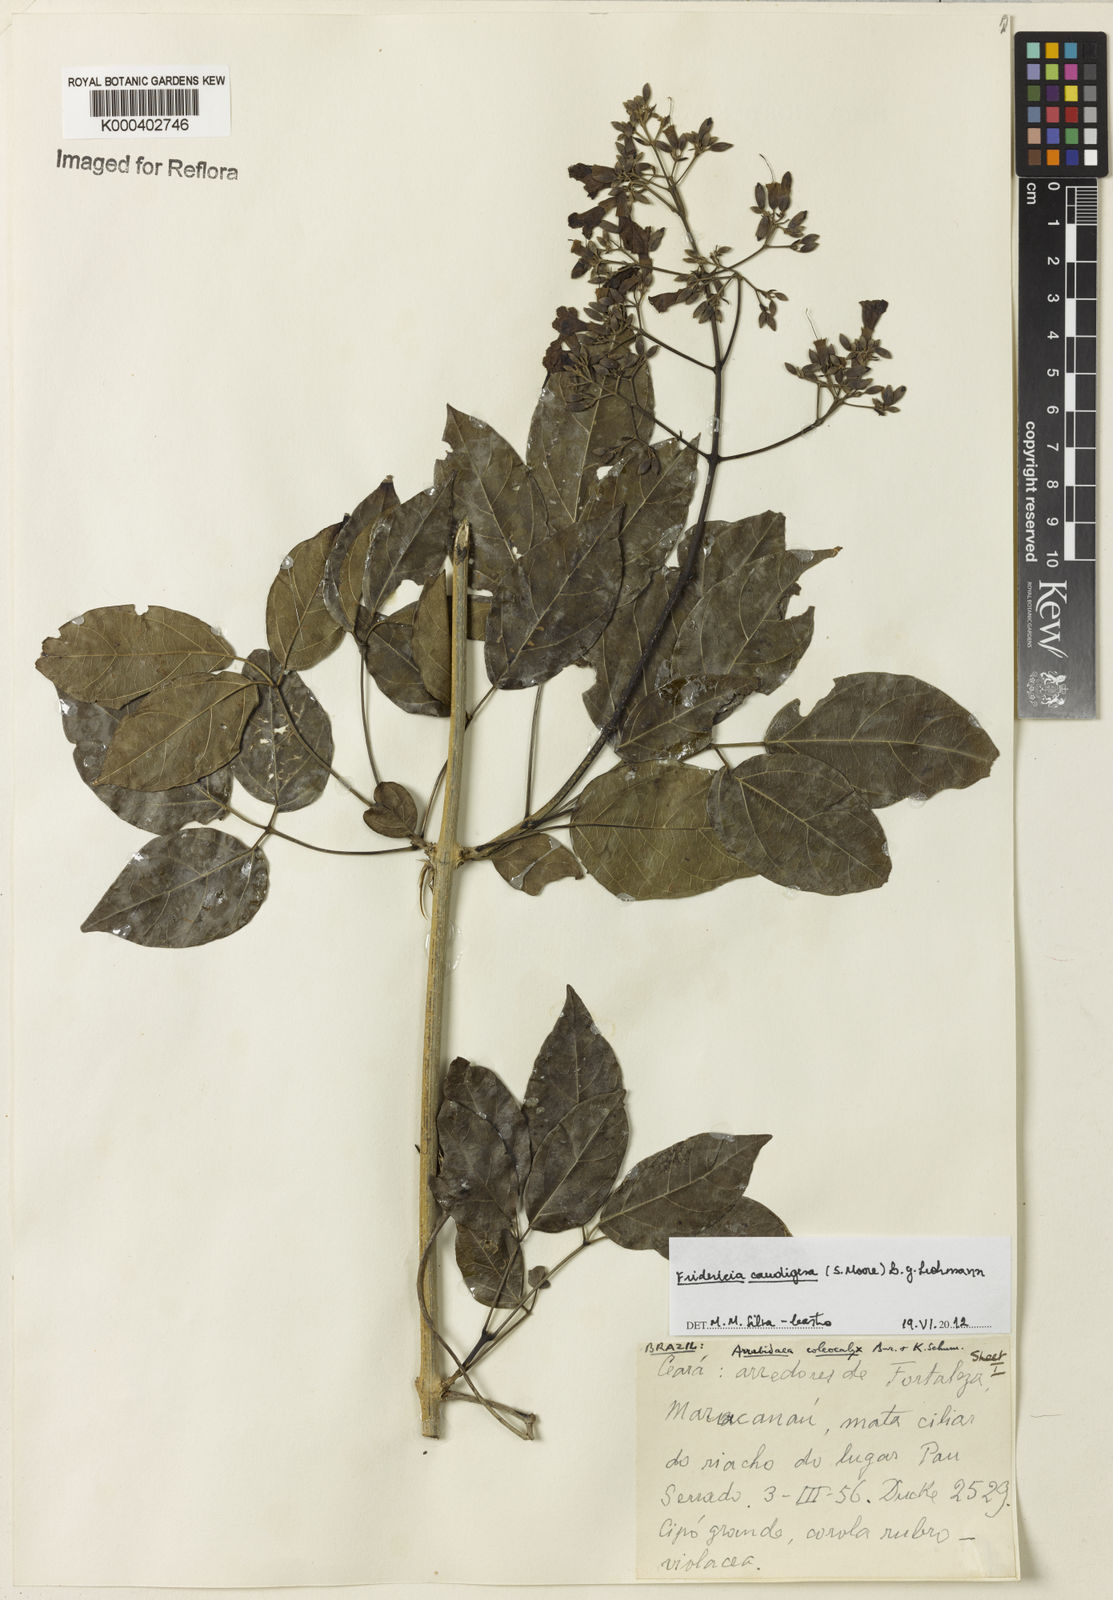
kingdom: Plantae
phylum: Tracheophyta
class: Magnoliopsida
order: Lamiales
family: Bignoniaceae
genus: Fridericia
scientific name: Fridericia caudigera
